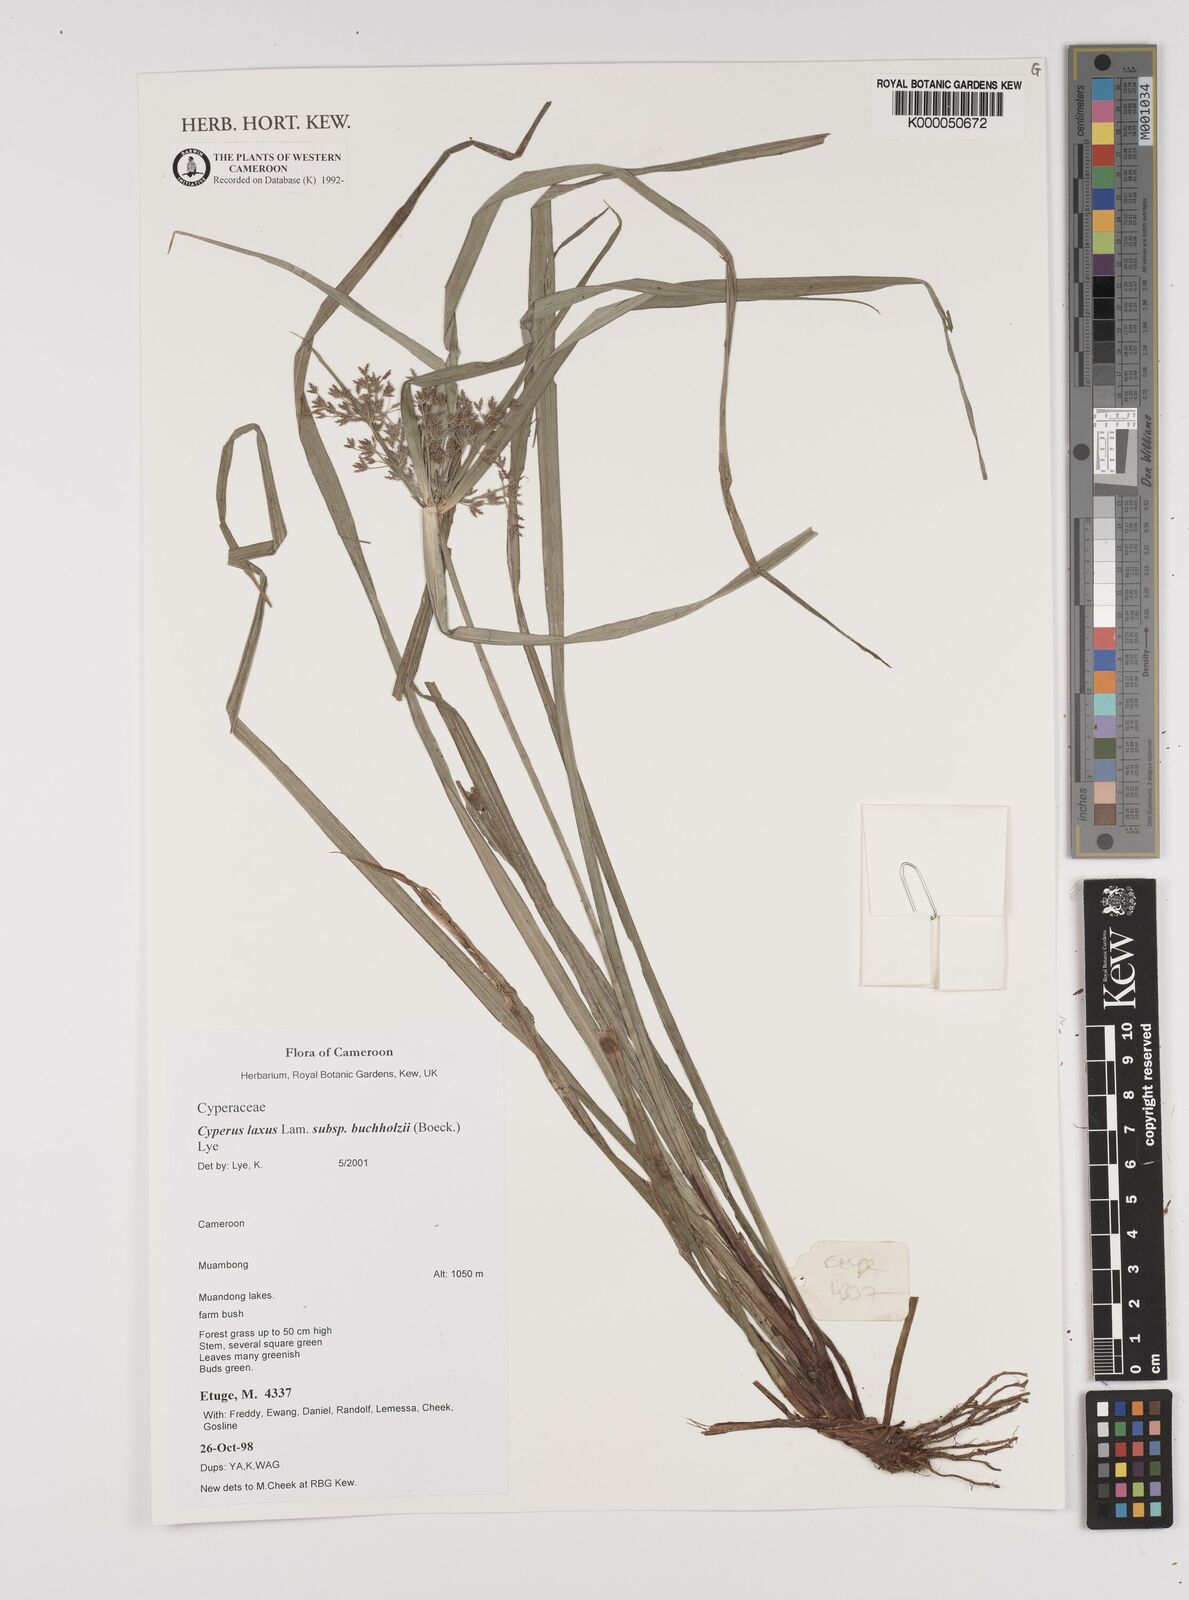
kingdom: Plantae
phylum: Tracheophyta
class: Liliopsida
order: Poales
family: Cyperaceae
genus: Cyperus
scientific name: Cyperus buchholzii
